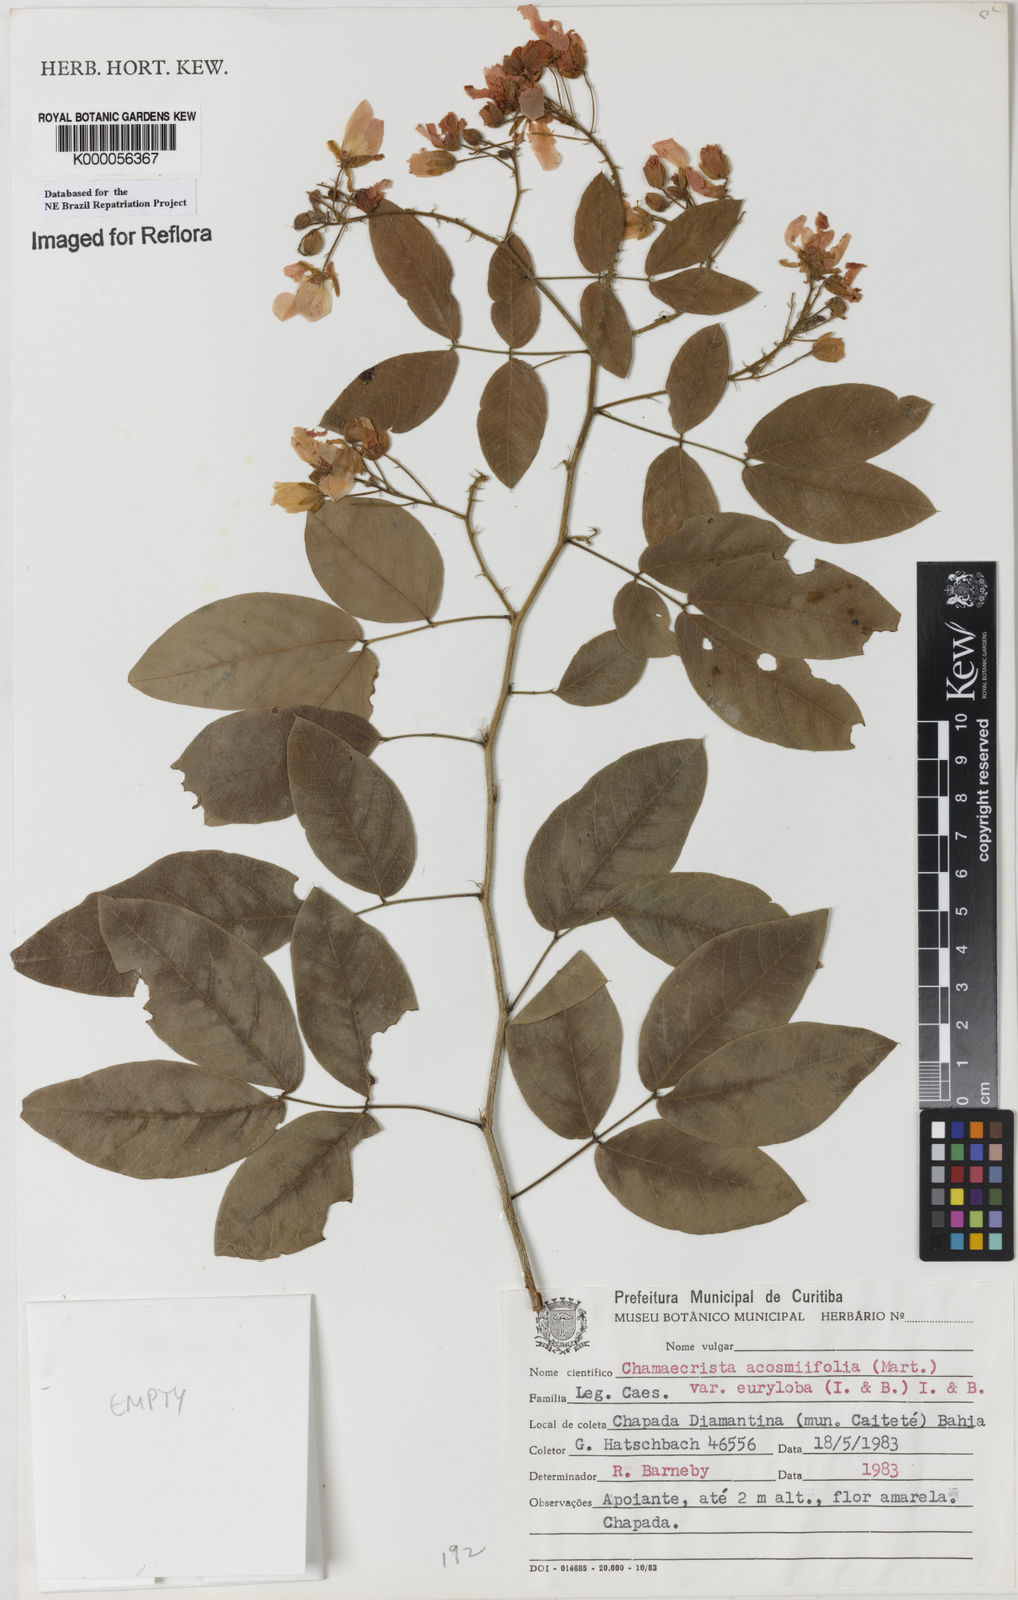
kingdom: Plantae
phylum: Tracheophyta
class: Magnoliopsida
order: Fabales
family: Fabaceae
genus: Chamaecrista
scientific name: Chamaecrista acosmifolia
